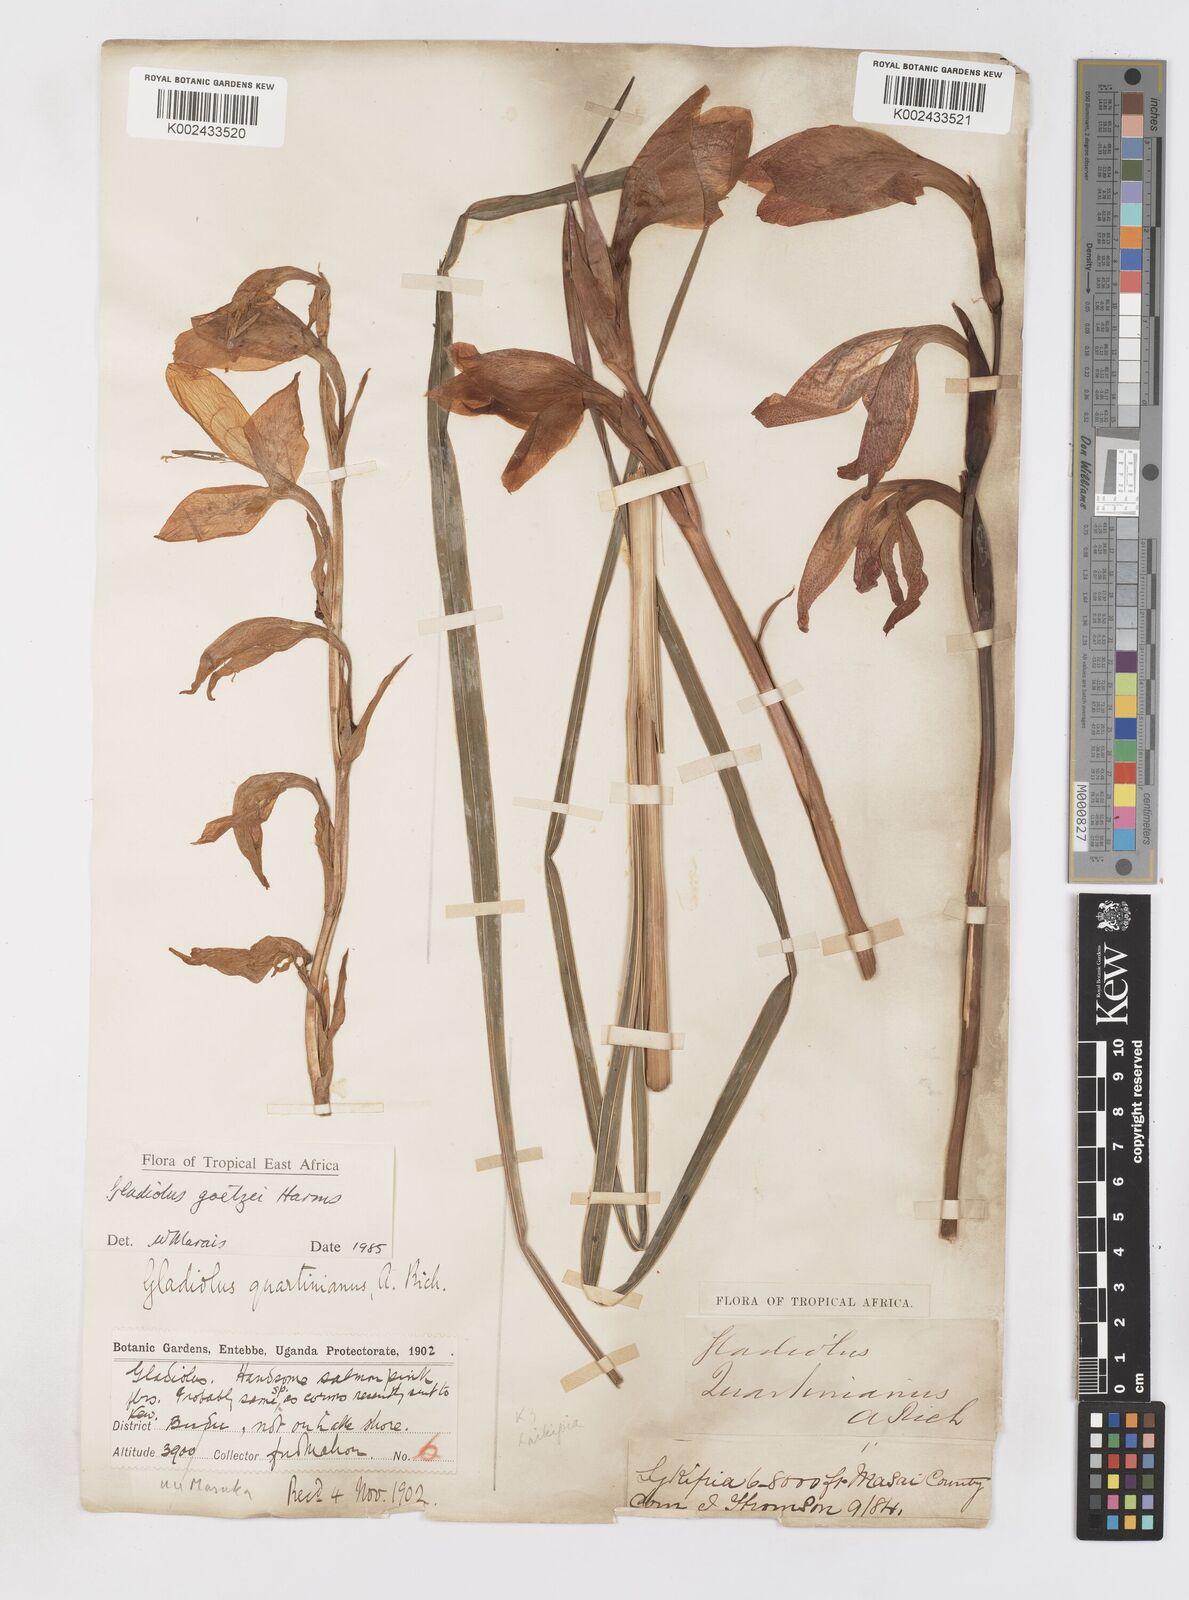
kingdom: Plantae
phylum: Tracheophyta
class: Liliopsida
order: Asparagales
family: Iridaceae
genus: Gladiolus
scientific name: Gladiolus dalenii
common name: Cornflag
